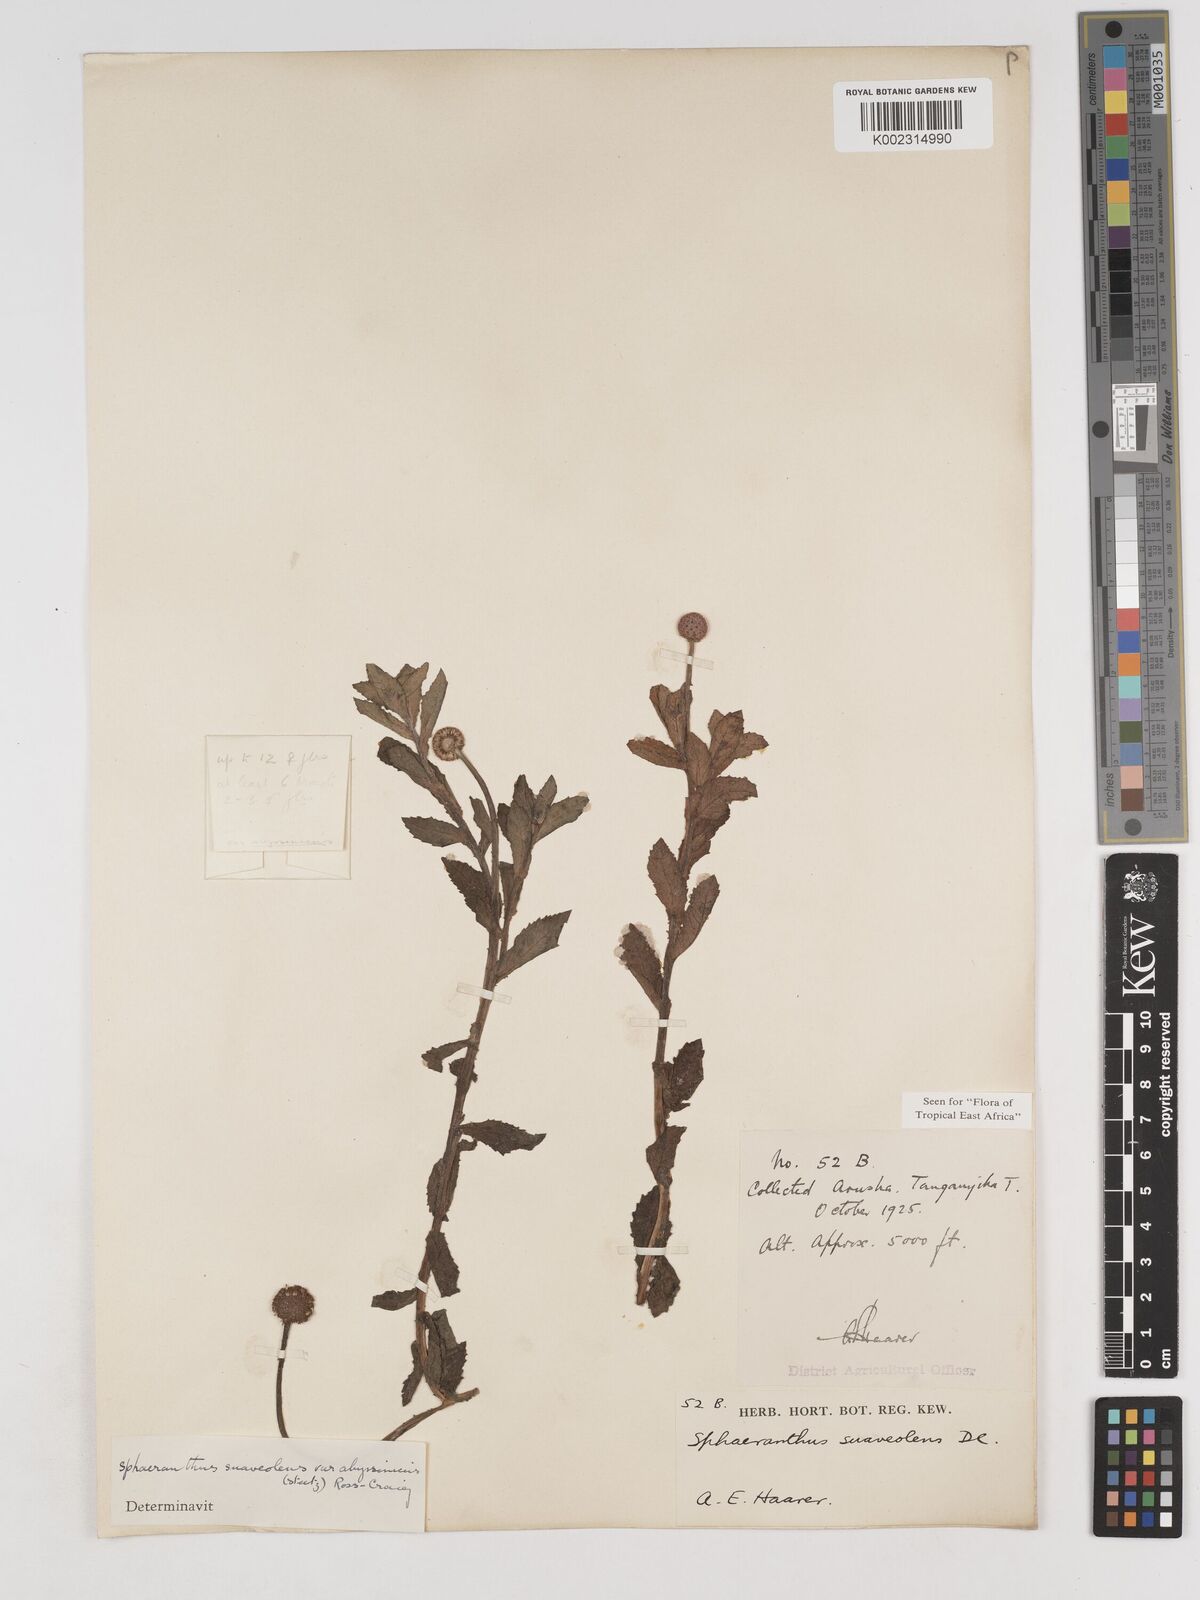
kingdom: Plantae
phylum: Tracheophyta
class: Magnoliopsida
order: Asterales
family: Asteraceae
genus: Sphaeranthus
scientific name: Sphaeranthus suaveolens
